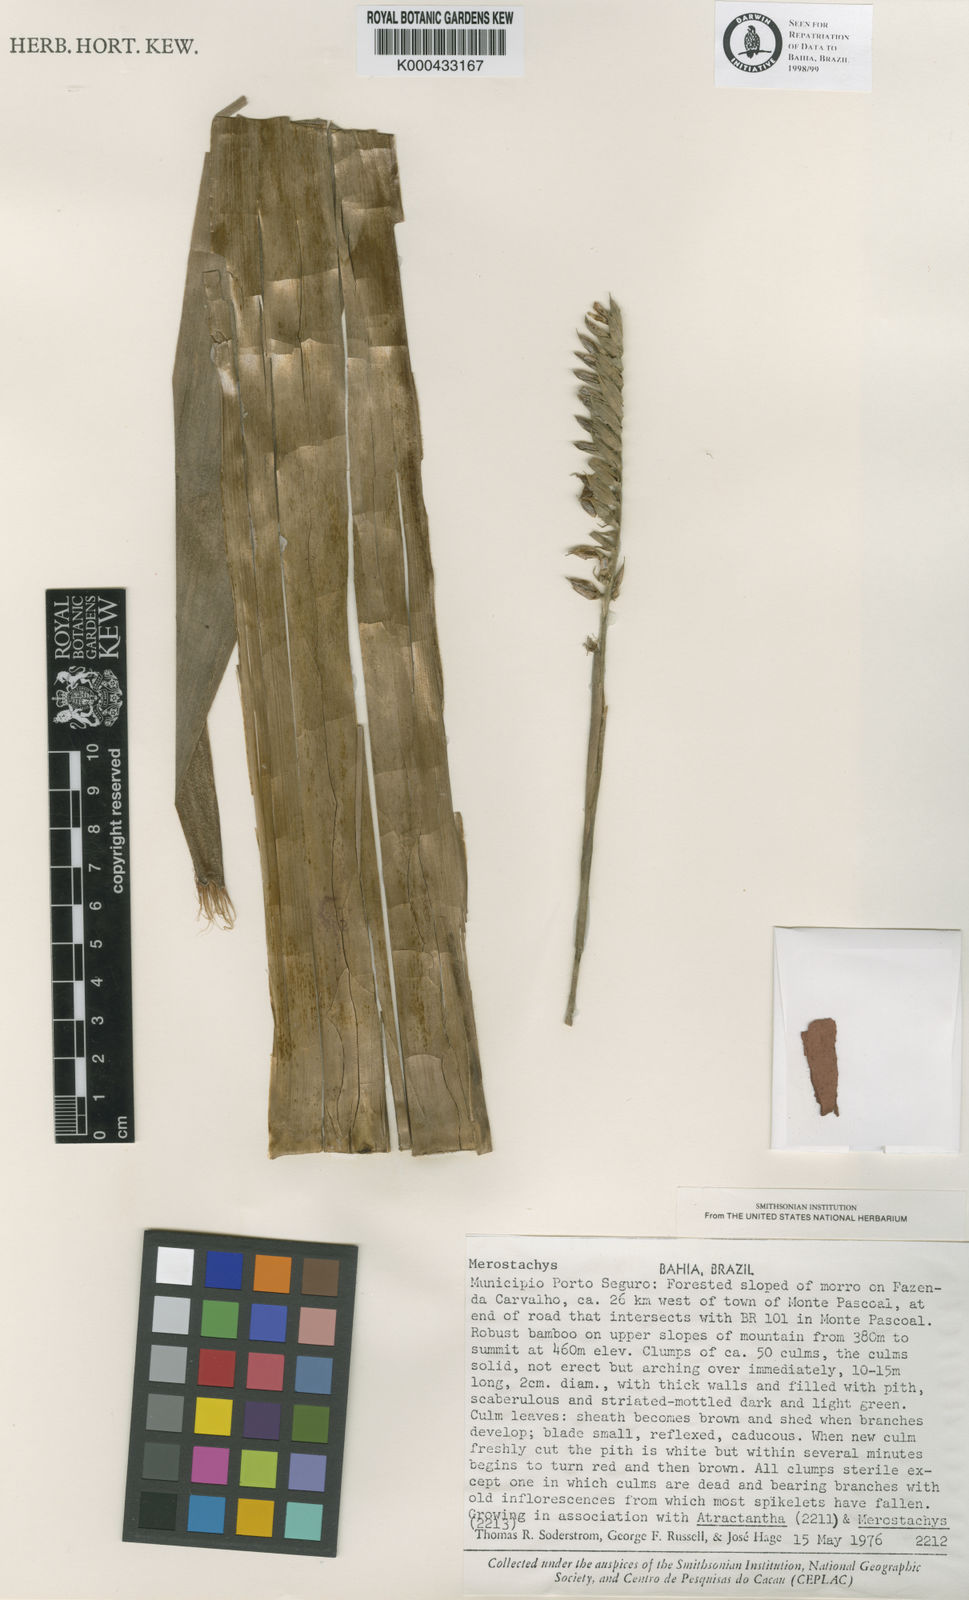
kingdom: Plantae
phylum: Tracheophyta
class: Liliopsida
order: Poales
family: Poaceae
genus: Merostachys
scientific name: Merostachys medullosa
